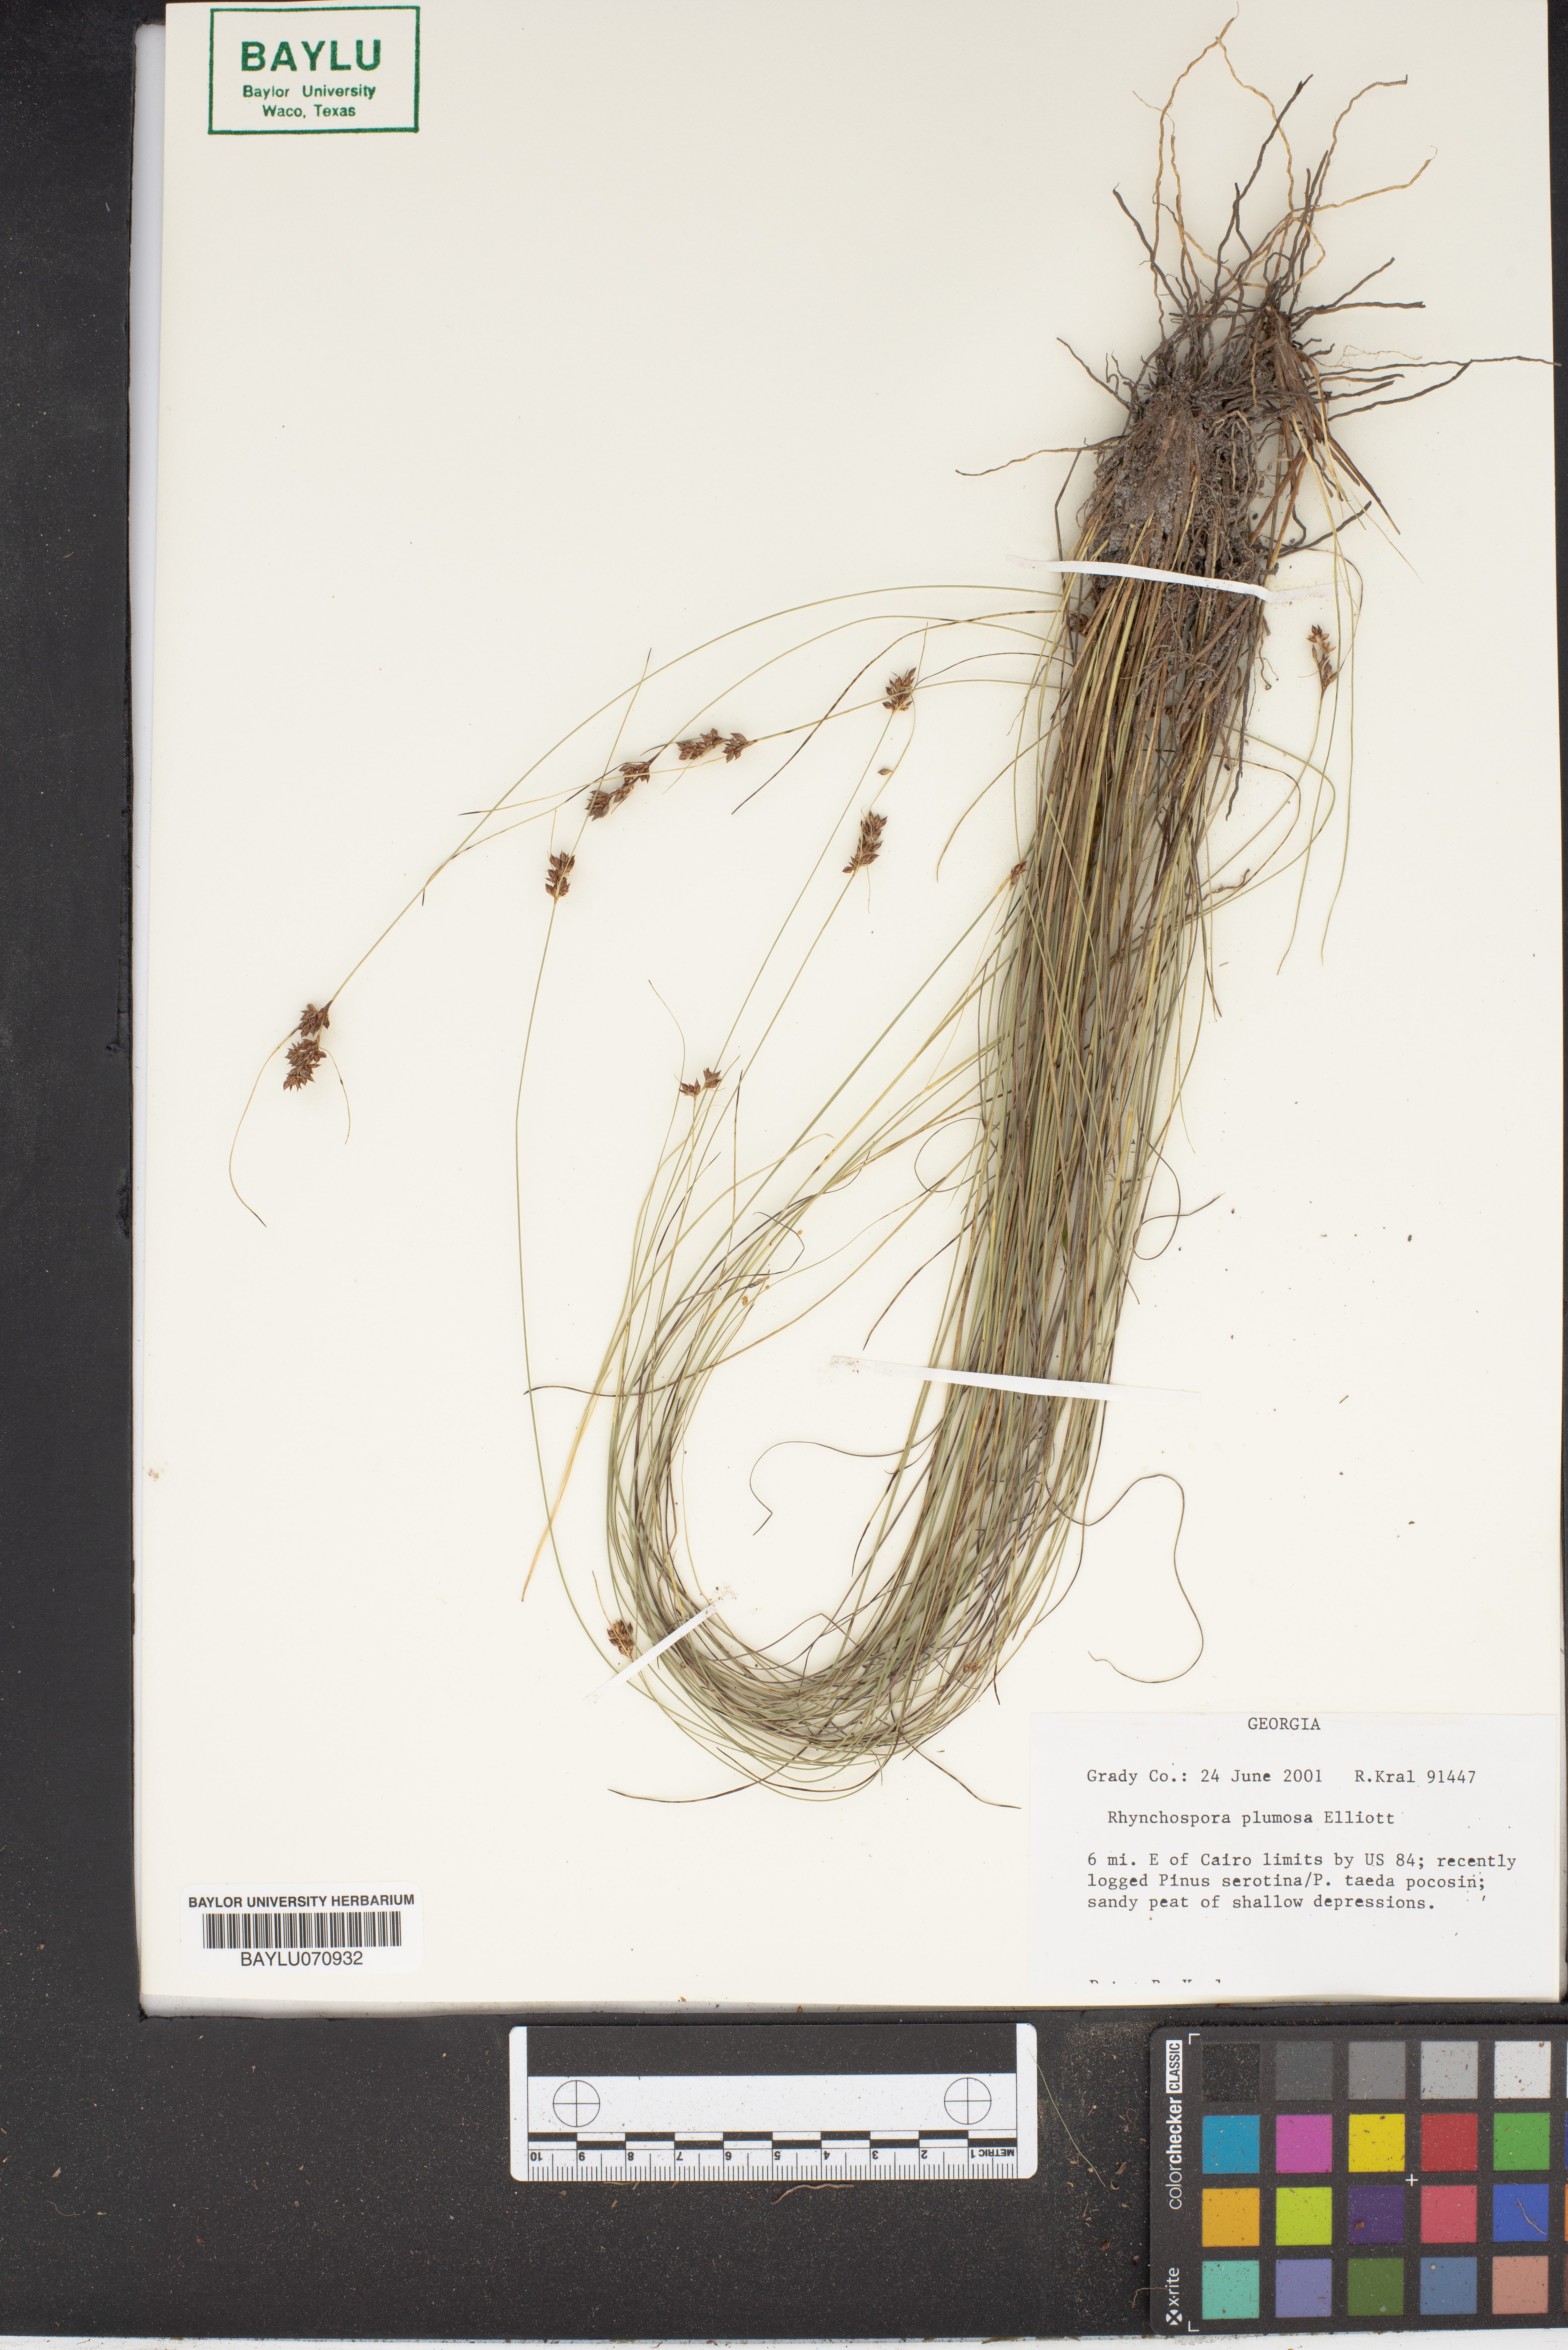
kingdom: Plantae
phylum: Tracheophyta
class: Liliopsida
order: Poales
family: Cyperaceae
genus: Rhynchospora
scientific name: Rhynchospora plumosa
